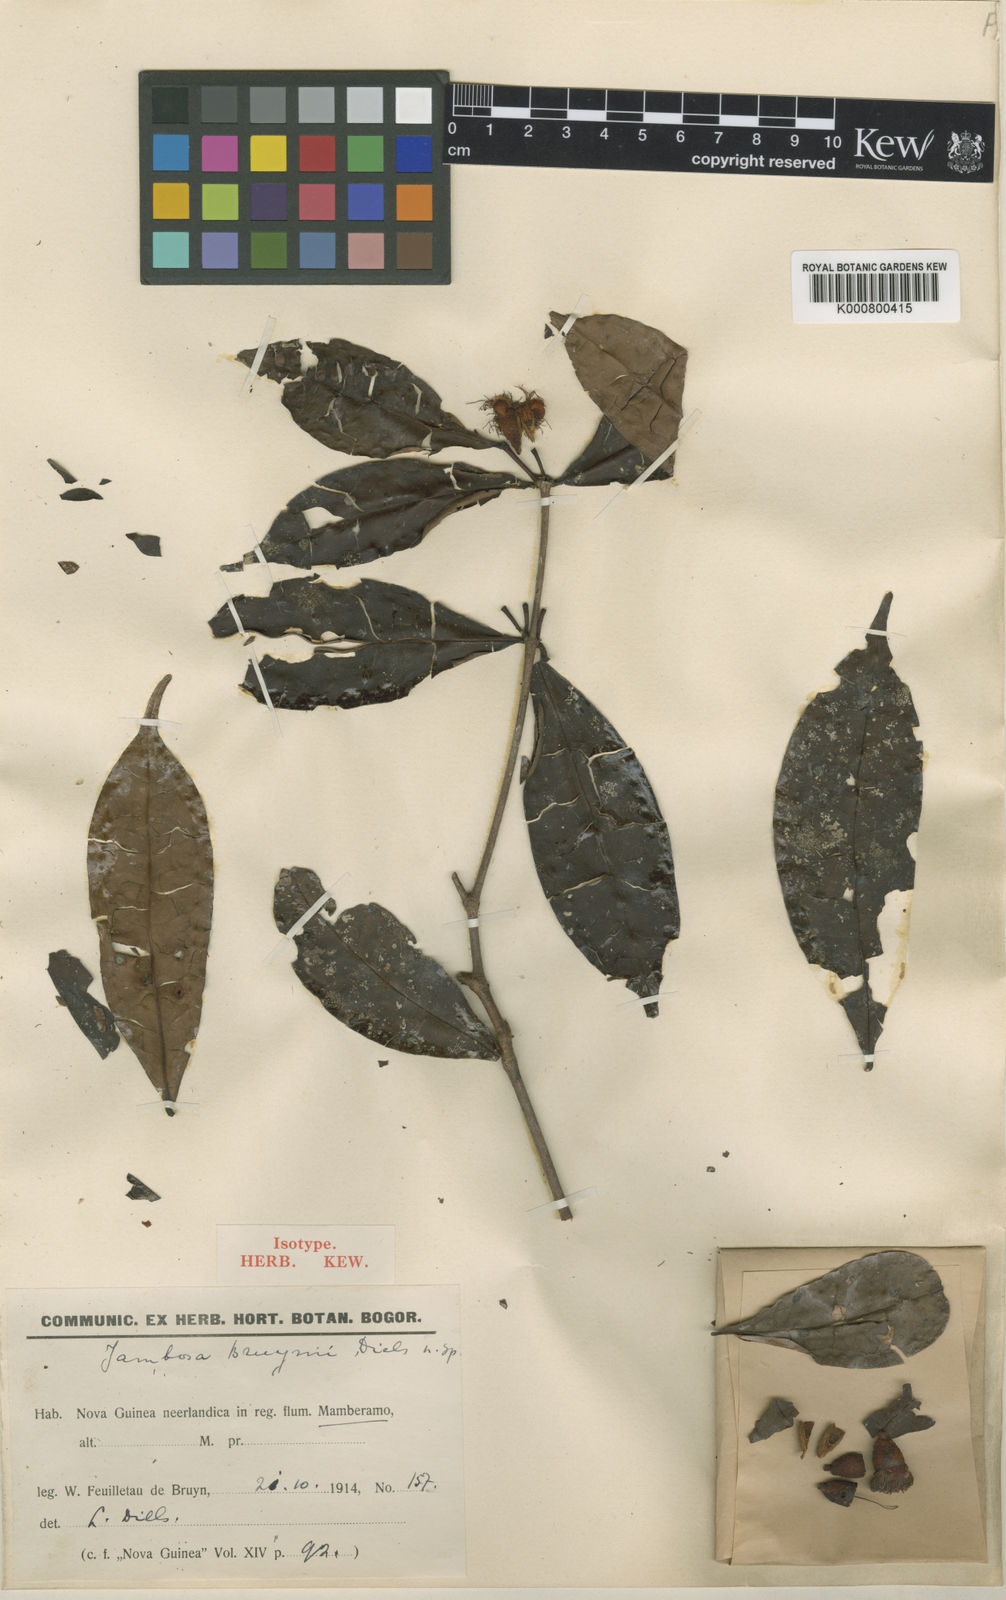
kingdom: Plantae
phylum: Tracheophyta
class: Magnoliopsida
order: Myrtales
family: Myrtaceae
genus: Syzygium
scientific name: Syzygium bruynii
